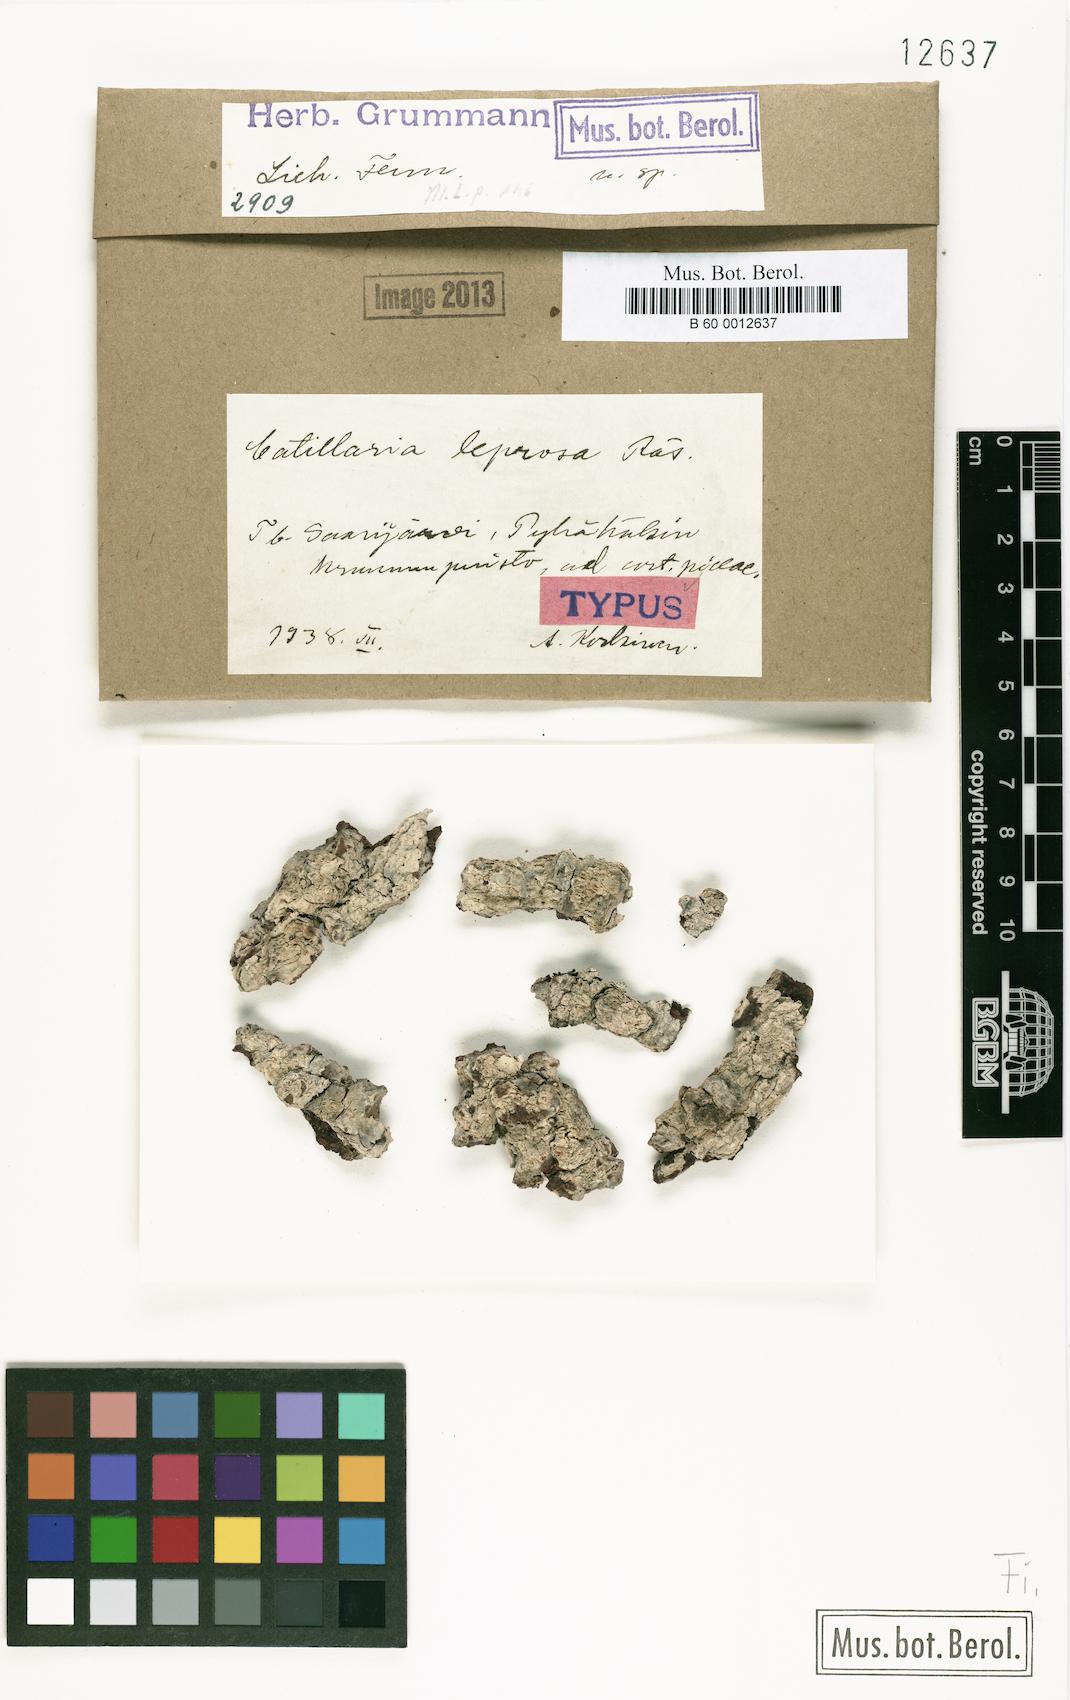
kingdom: Fungi
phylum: Ascomycota
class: Lecanoromycetes
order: Lecanorales
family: Ramalinaceae
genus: Cliostomum
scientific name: Cliostomum leprosum
